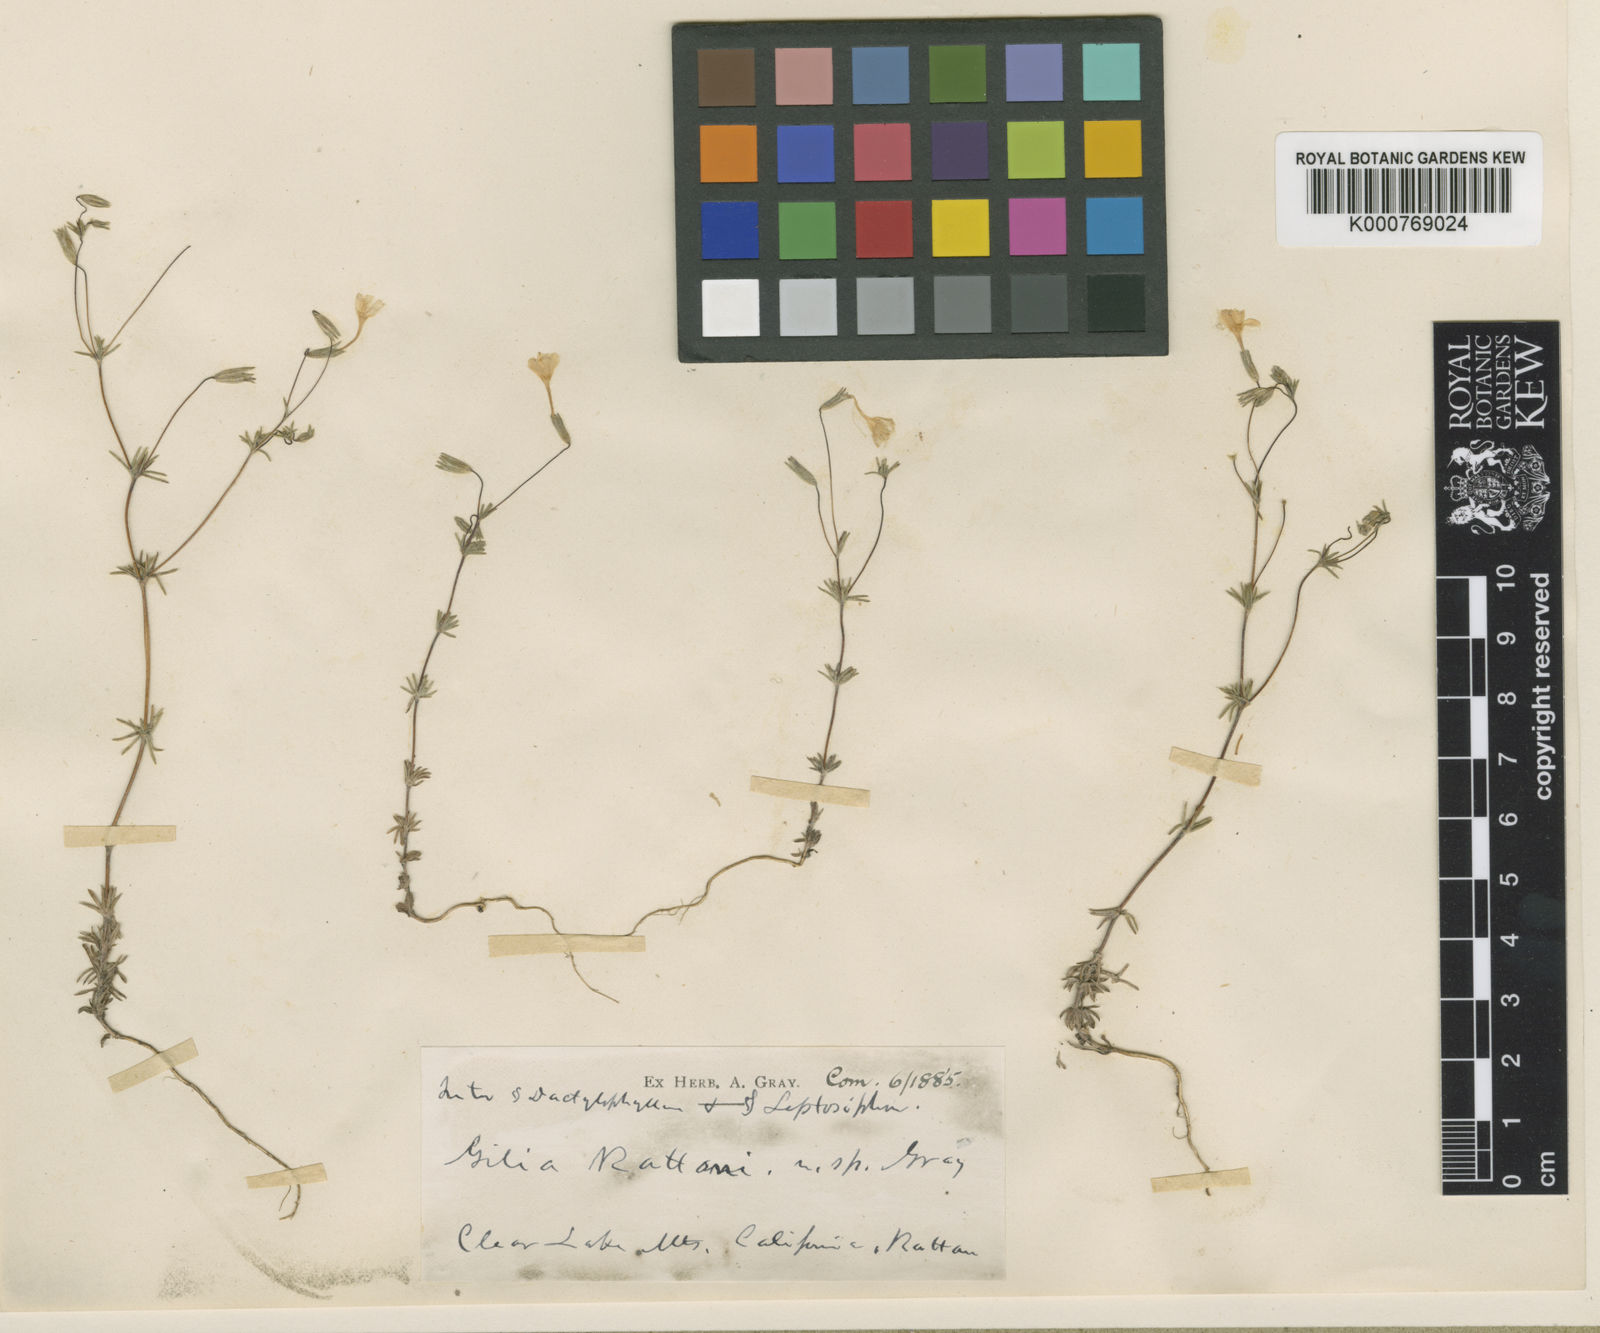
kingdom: Plantae
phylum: Tracheophyta
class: Magnoliopsida
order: Ericales
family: Polemoniaceae
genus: Leptosiphon
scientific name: Leptosiphon rattanii
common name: Rattan's linanthus
